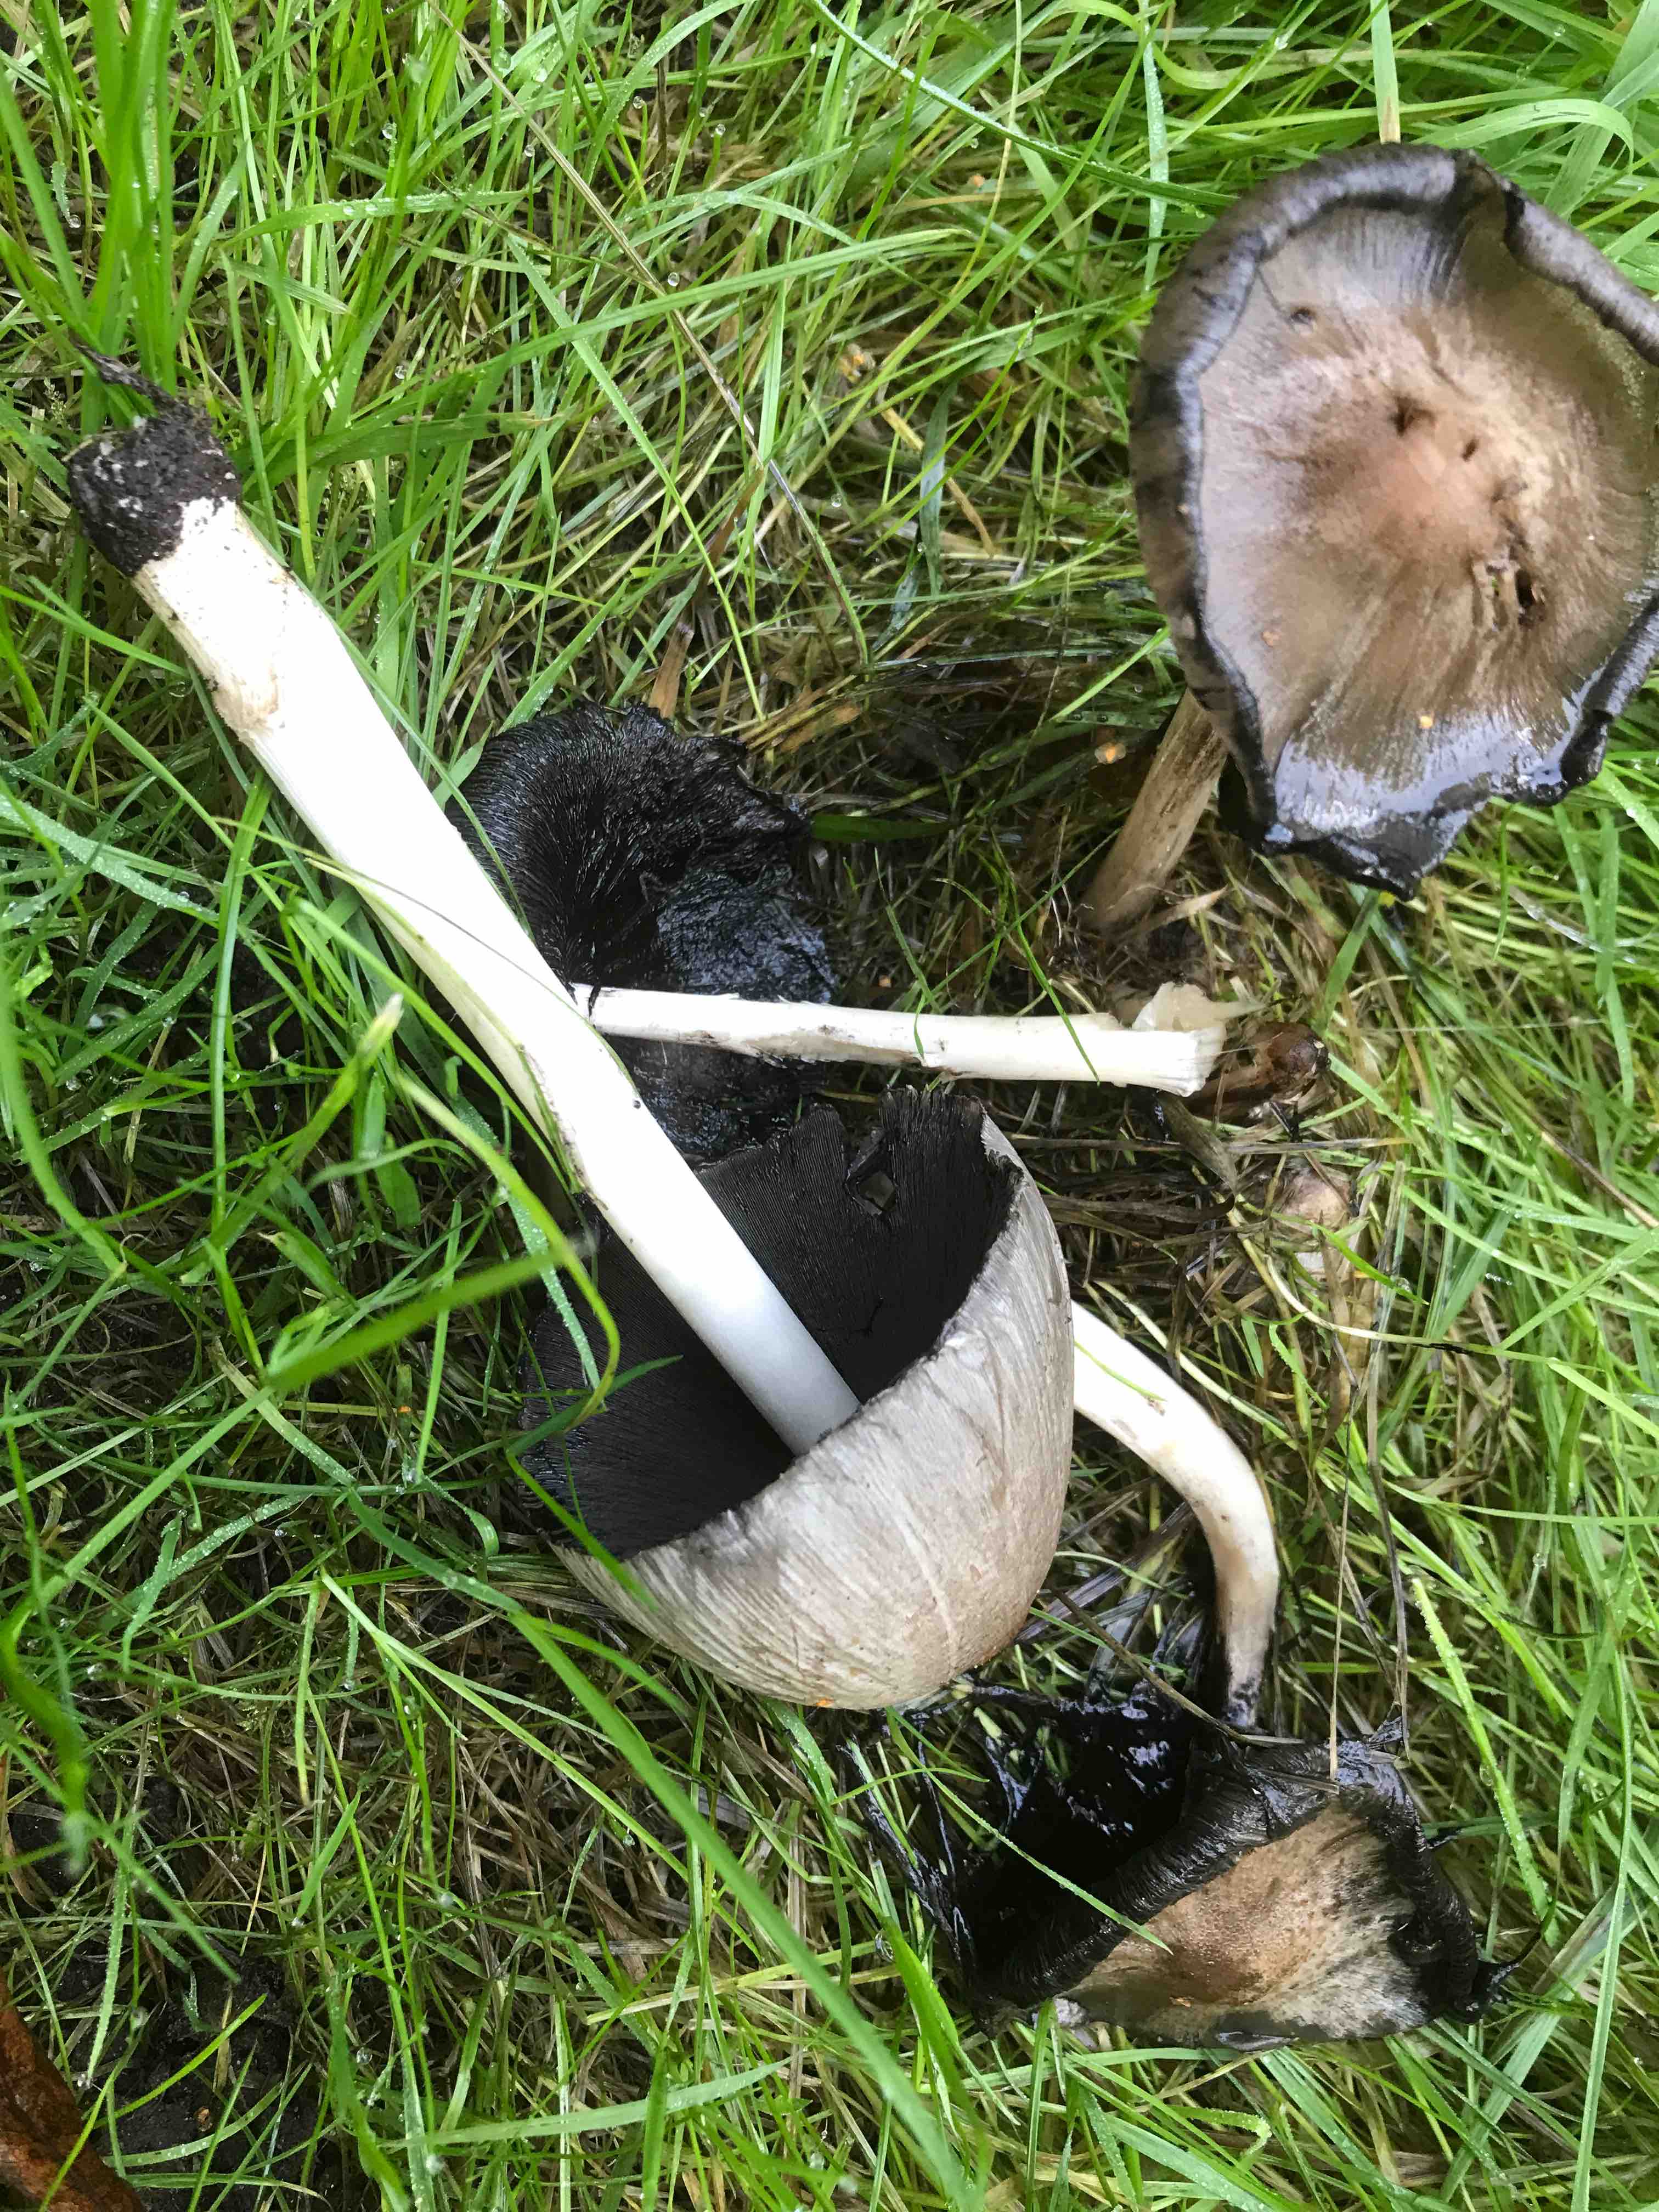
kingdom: Fungi
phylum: Basidiomycota
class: Agaricomycetes
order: Agaricales
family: Psathyrellaceae
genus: Coprinopsis
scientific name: Coprinopsis atramentaria
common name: almindelig blækhat
